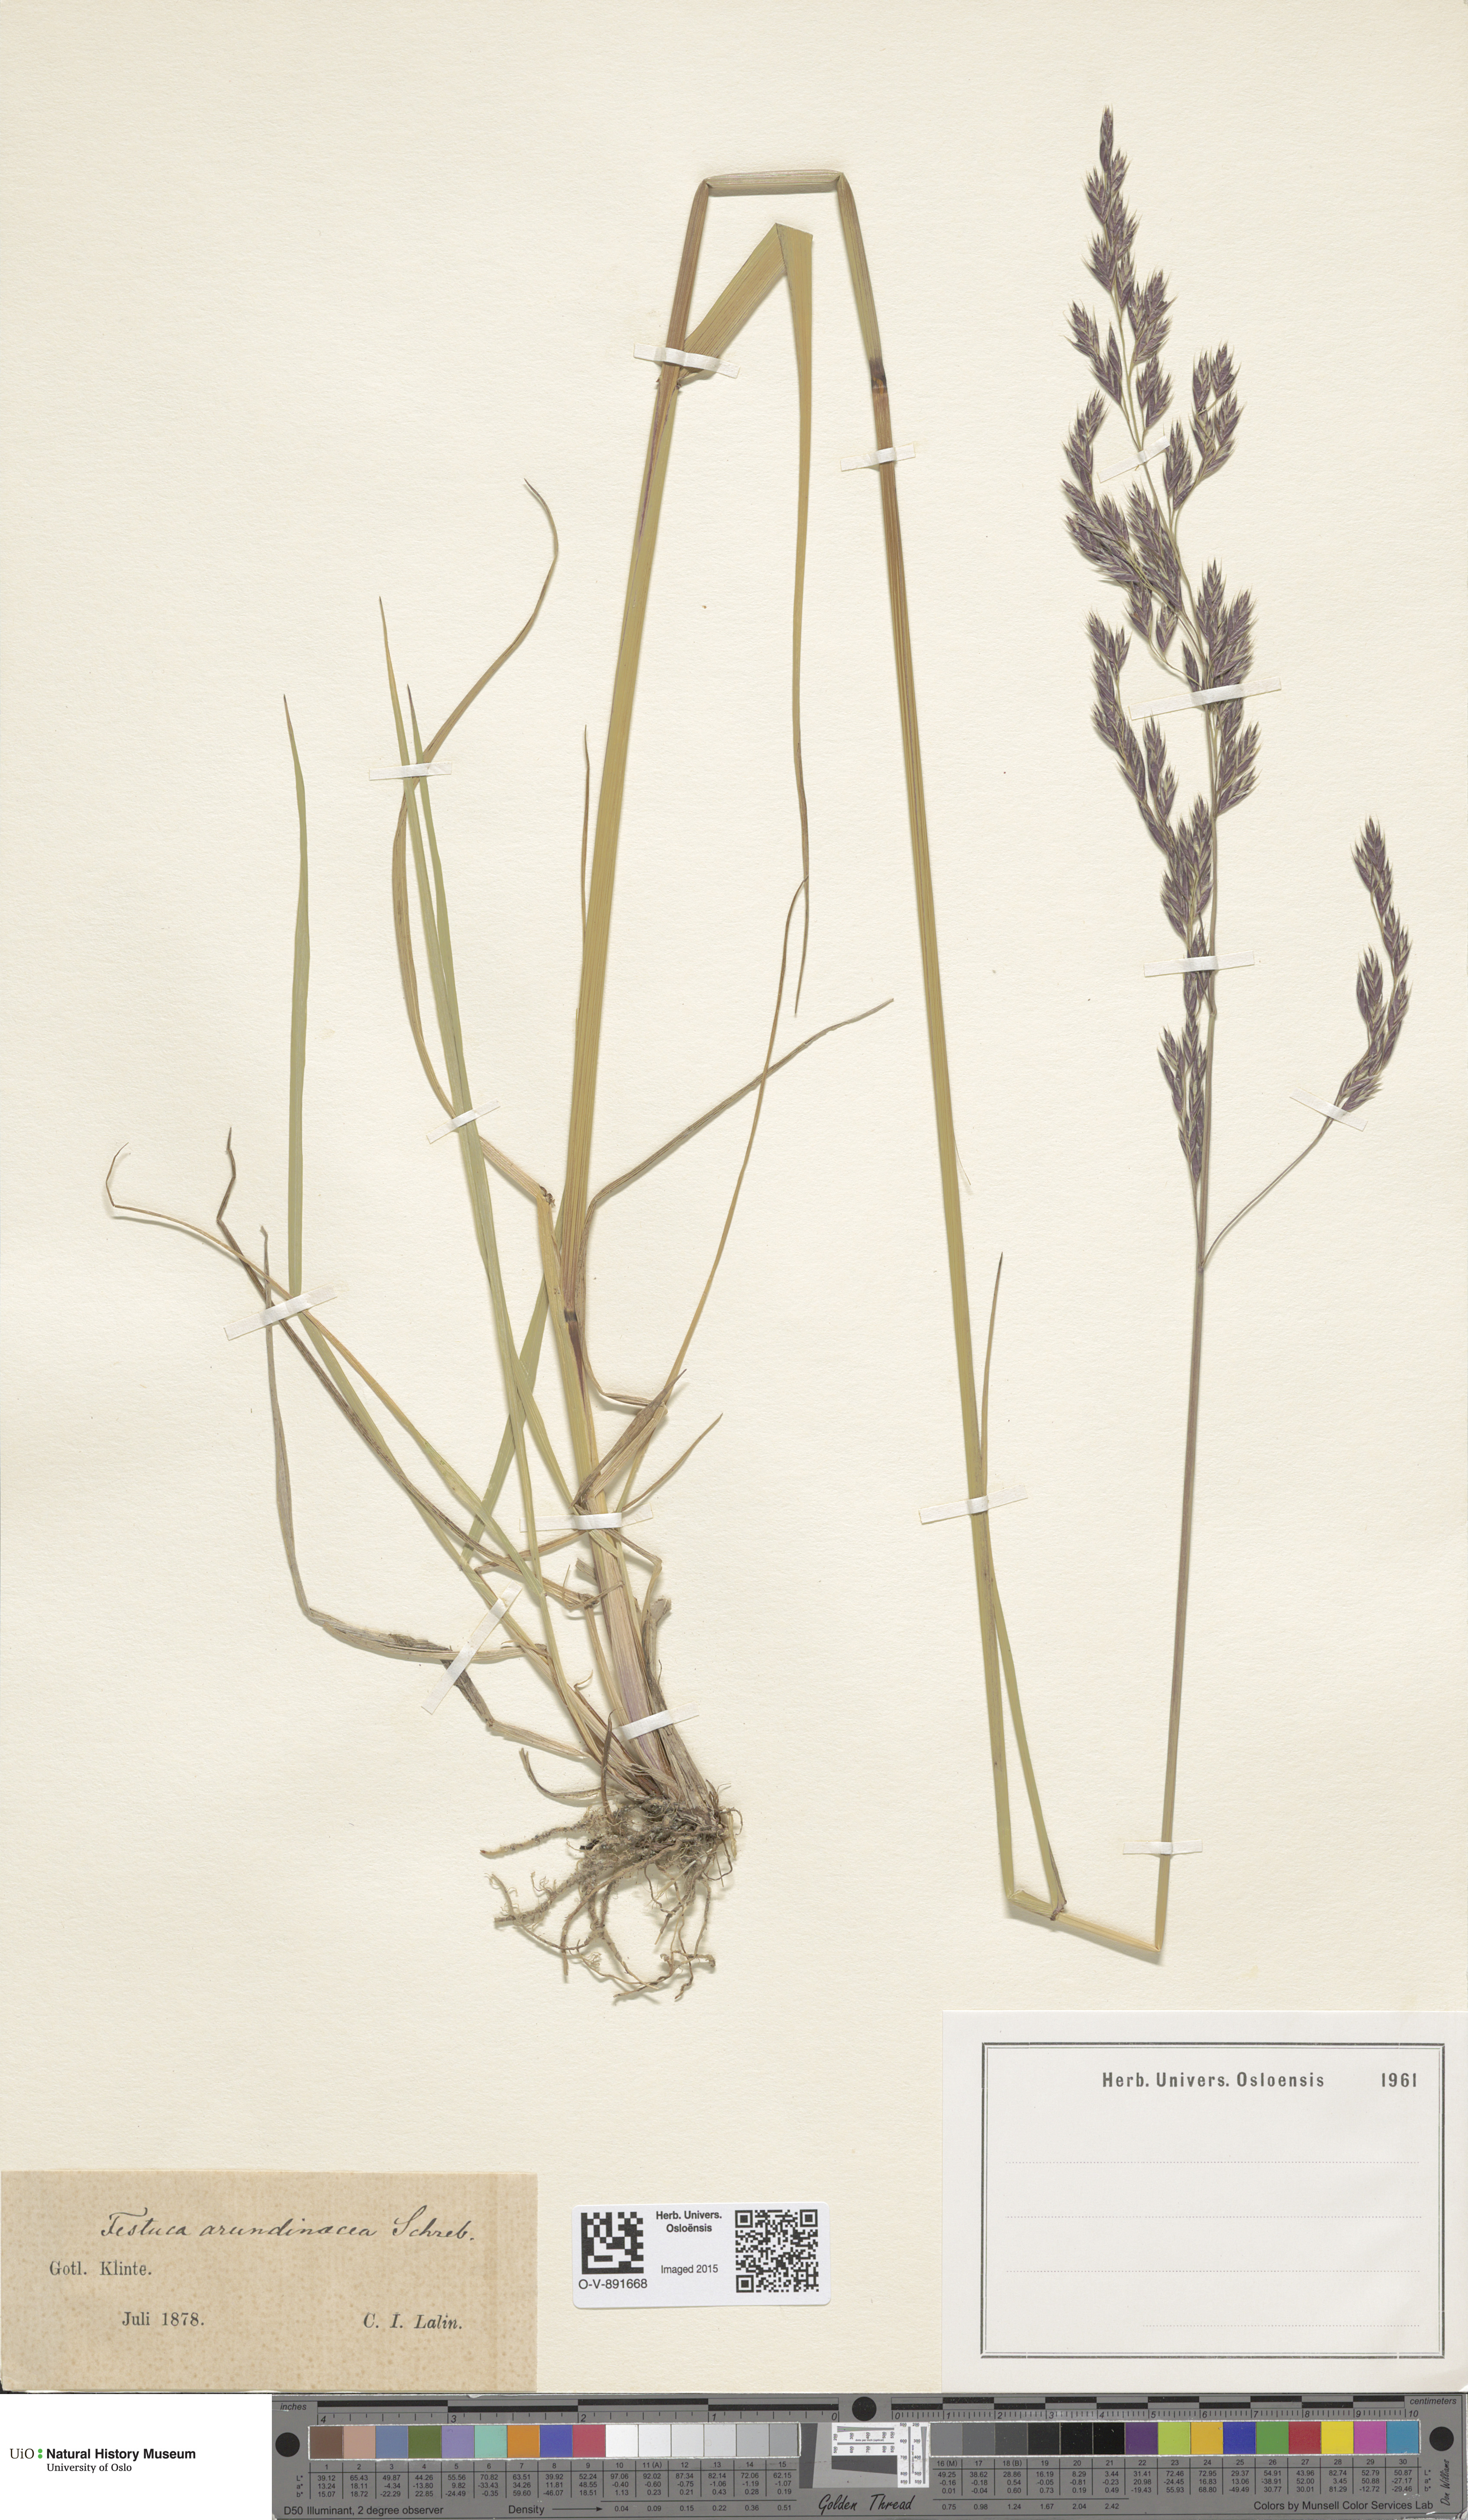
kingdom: Plantae
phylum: Tracheophyta
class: Liliopsida
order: Poales
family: Poaceae
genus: Lolium
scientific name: Lolium arundinaceum
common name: Reed fescue
